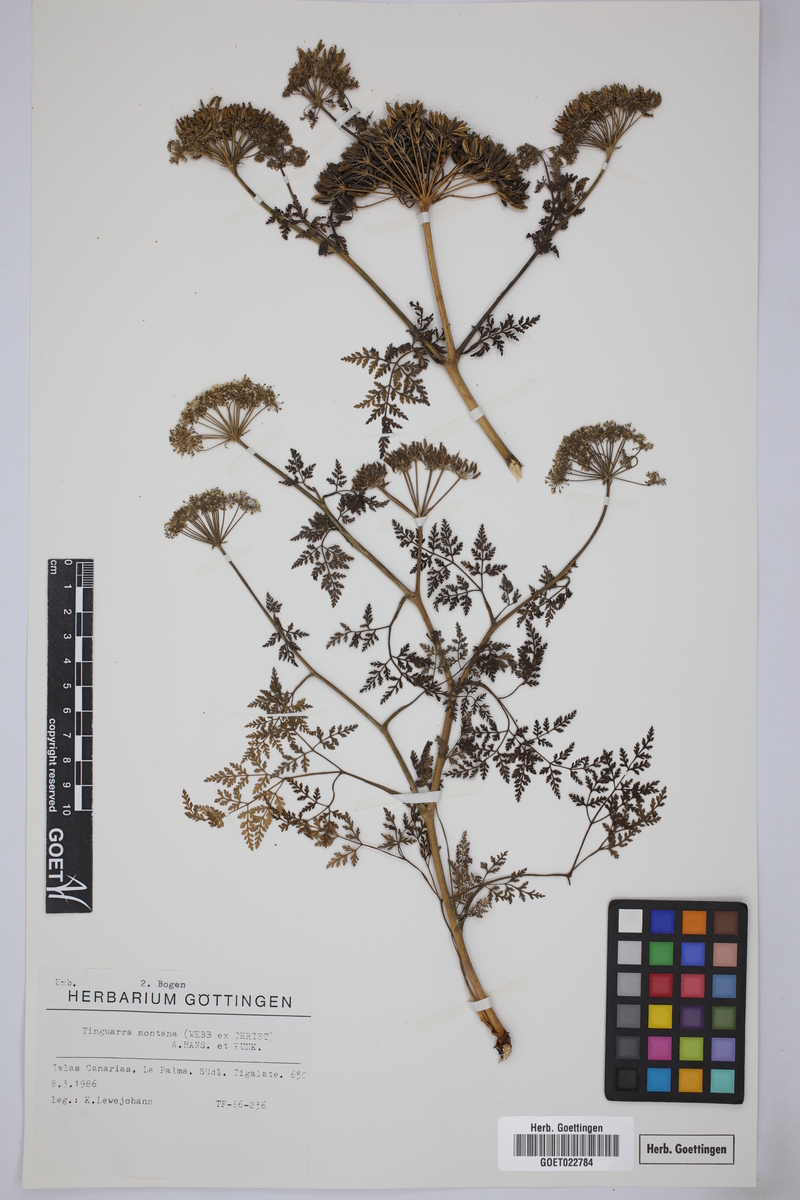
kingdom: Plantae
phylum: Tracheophyta
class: Magnoliopsida
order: Apiales
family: Apiaceae
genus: Athamanta
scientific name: Athamanta montana
